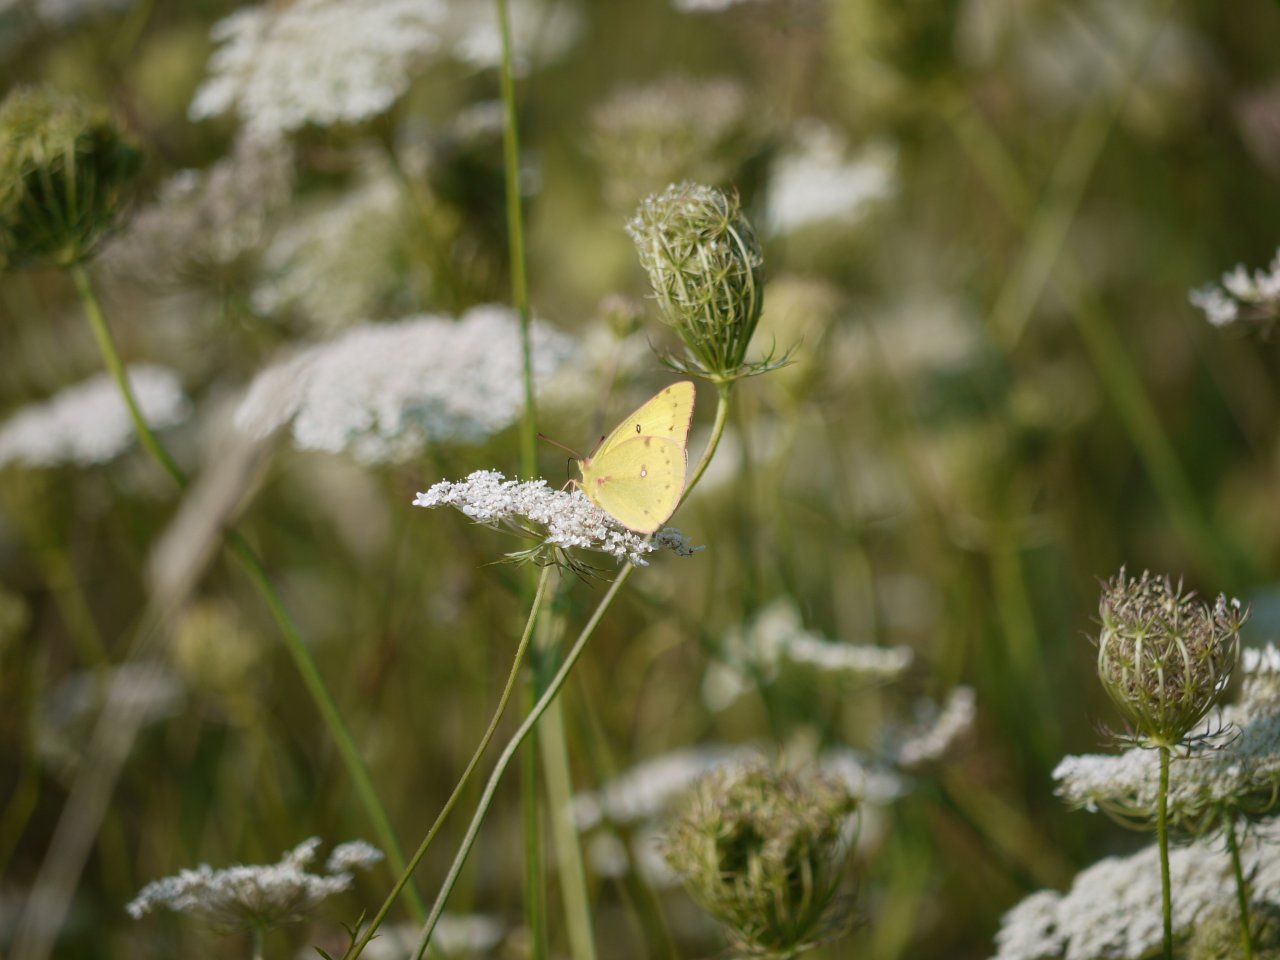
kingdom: Animalia
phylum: Arthropoda
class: Insecta
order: Lepidoptera
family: Pieridae
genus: Colias
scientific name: Colias philodice
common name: Clouded Sulphur
